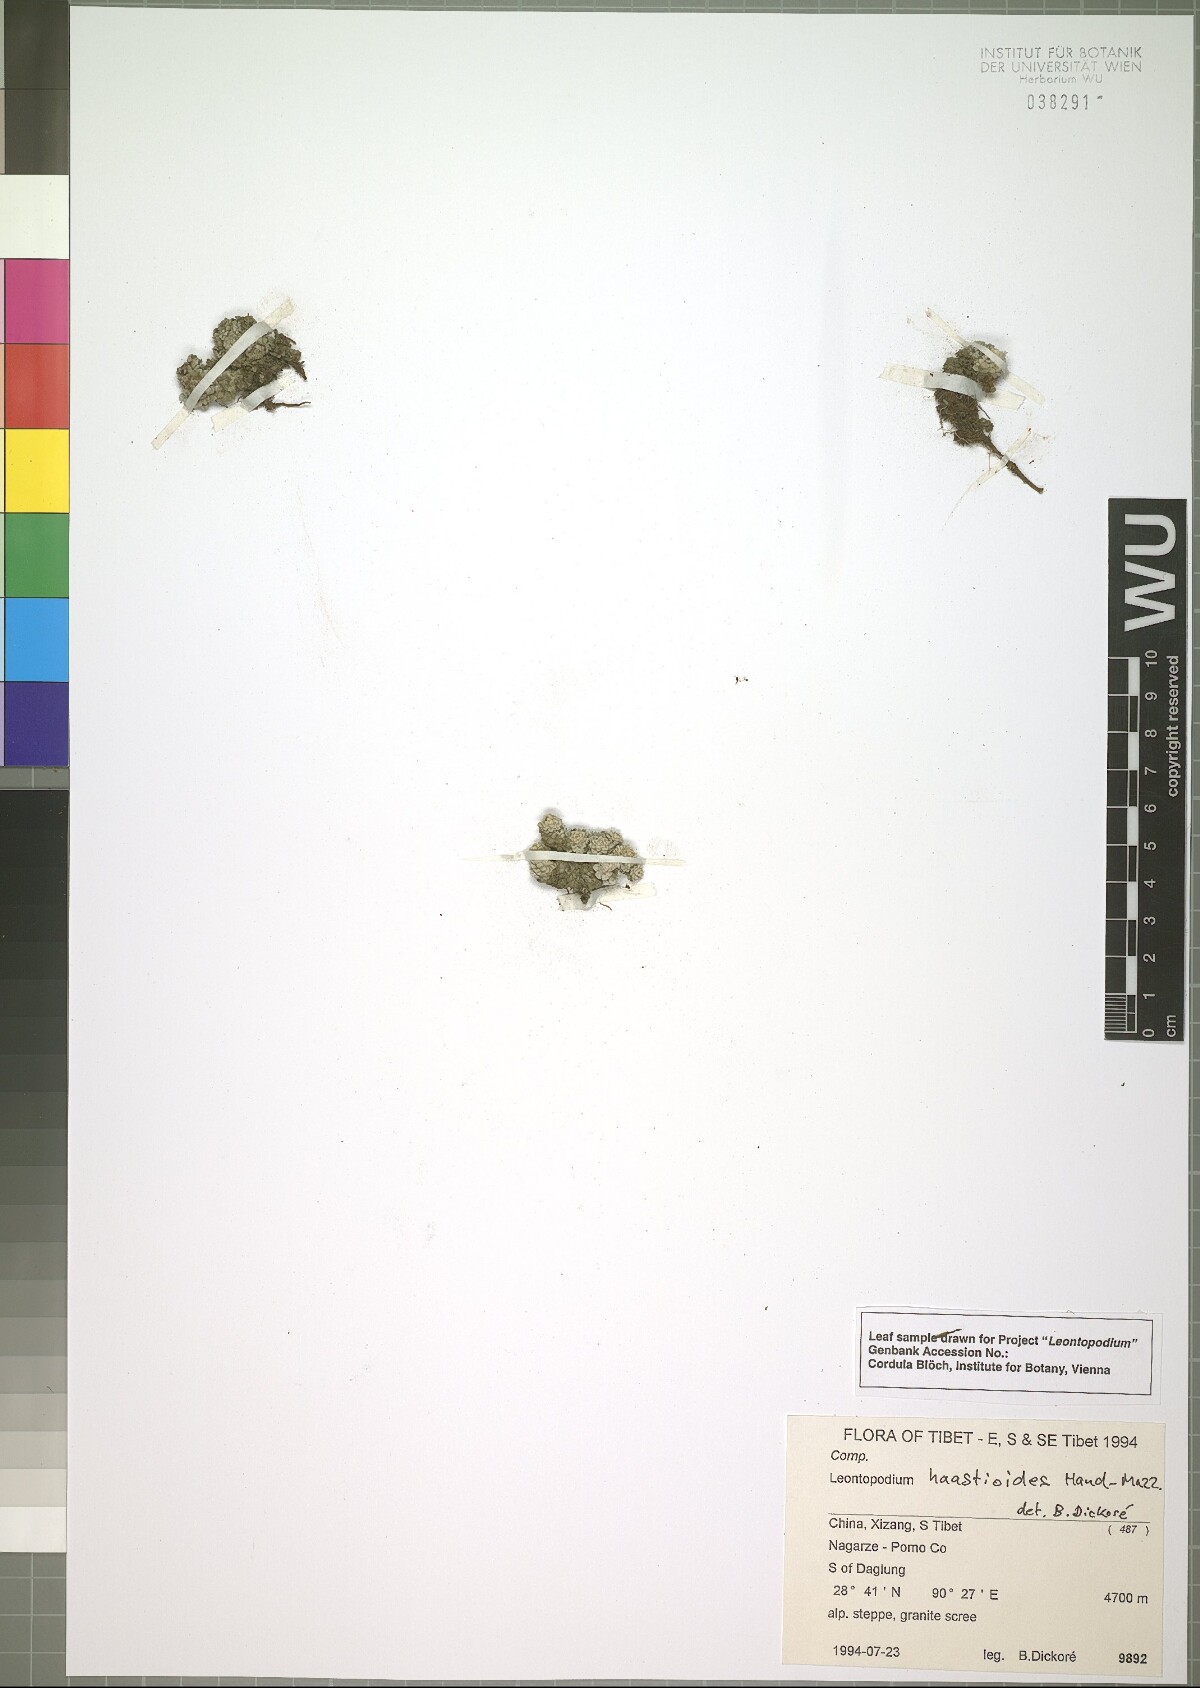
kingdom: Plantae
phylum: Tracheophyta
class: Magnoliopsida
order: Asterales
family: Asteraceae
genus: Leontopodium
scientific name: Leontopodium haastioides
